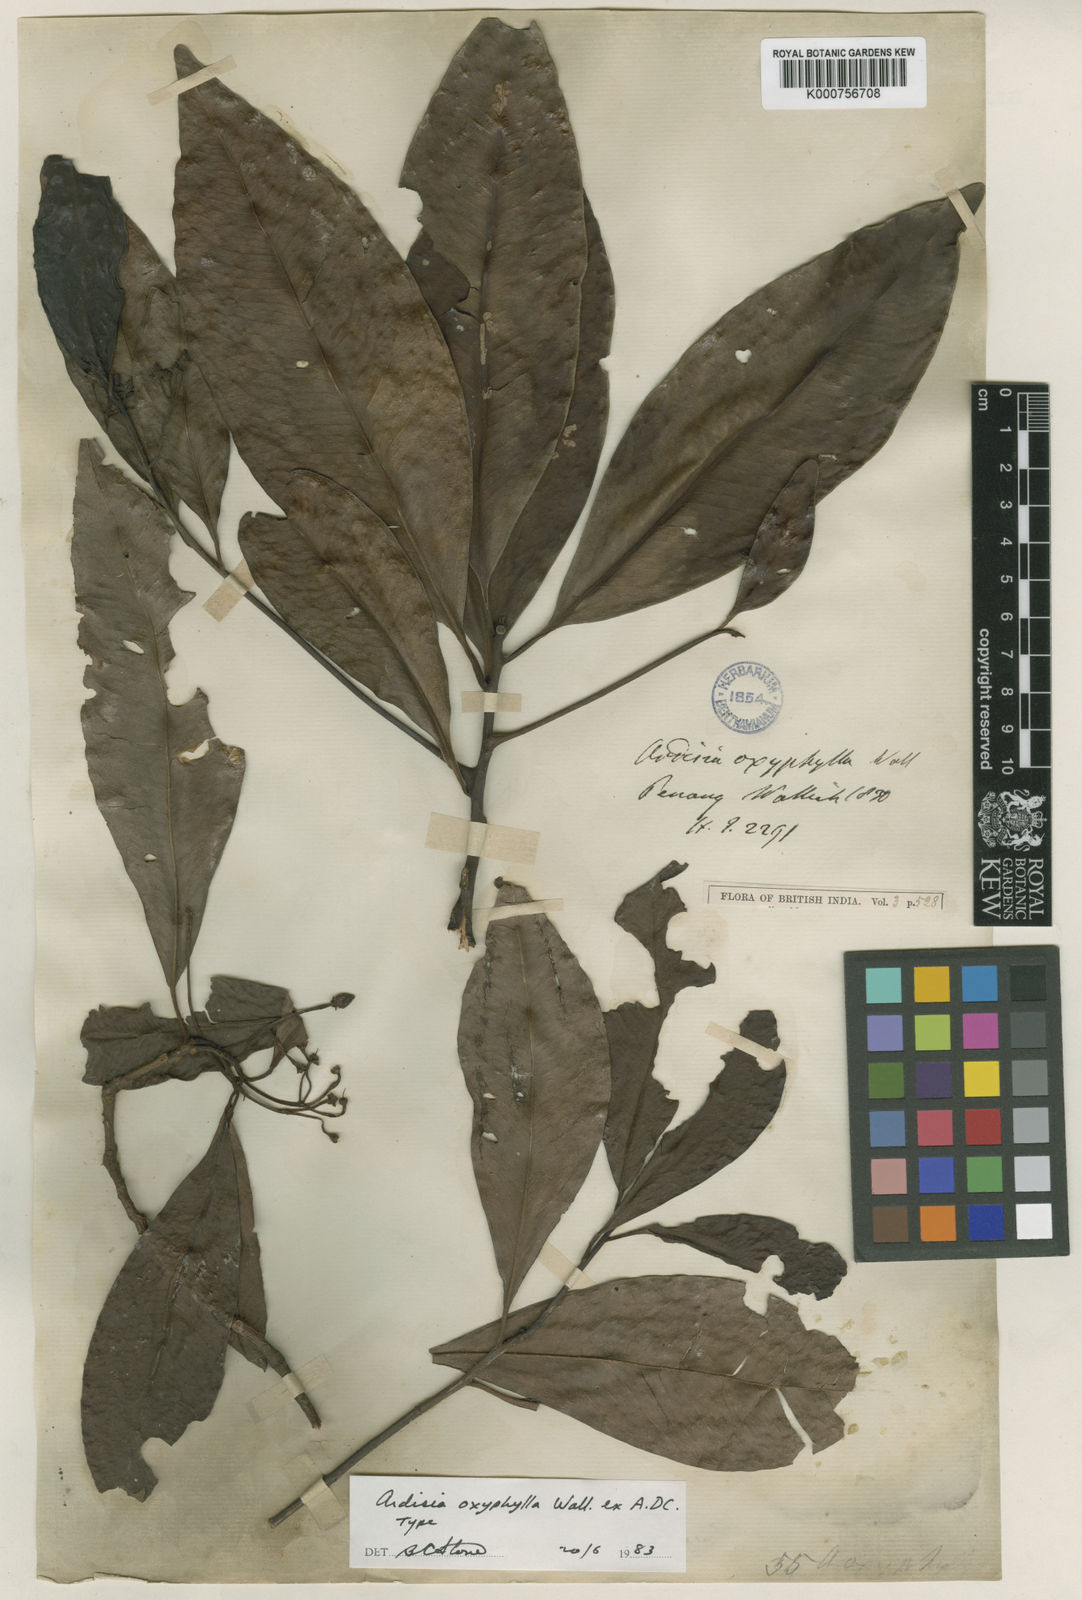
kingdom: Plantae
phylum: Tracheophyta
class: Magnoliopsida
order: Ericales
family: Primulaceae
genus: Ardisia
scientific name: Ardisia
